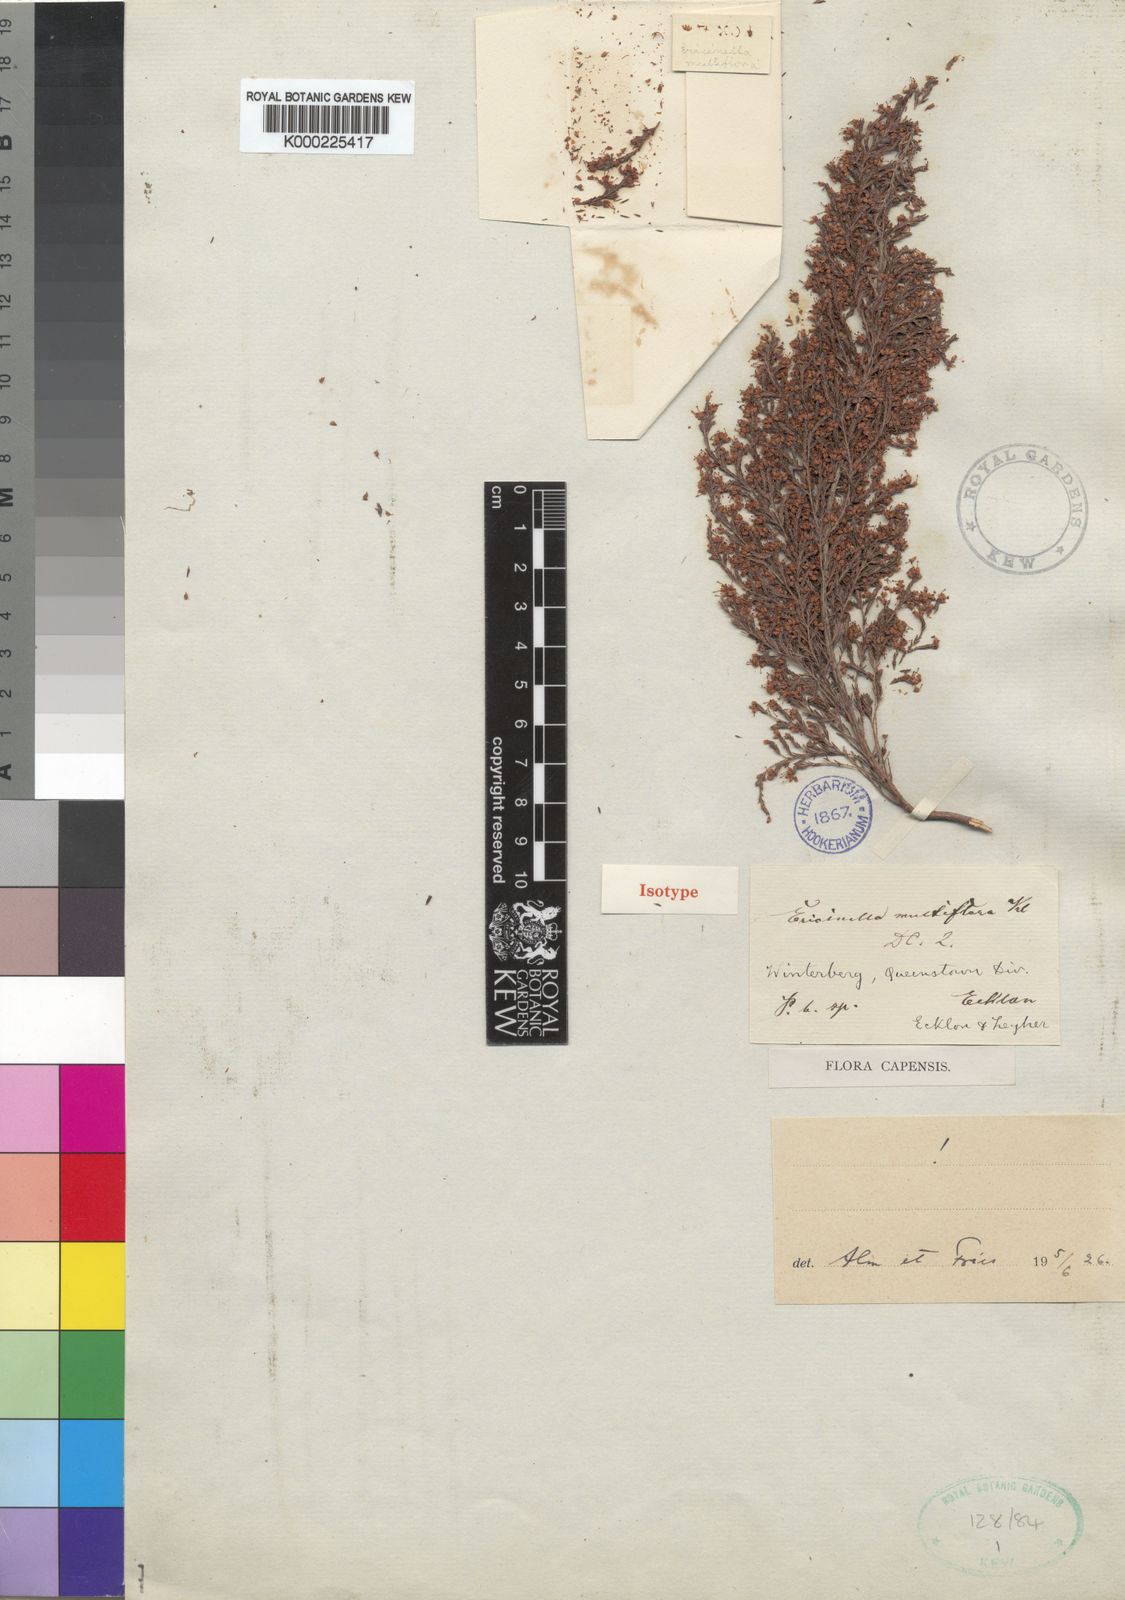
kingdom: Plantae
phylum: Tracheophyta
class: Magnoliopsida
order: Ericales
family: Ericaceae
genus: Erica
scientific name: Erica amatolensis
